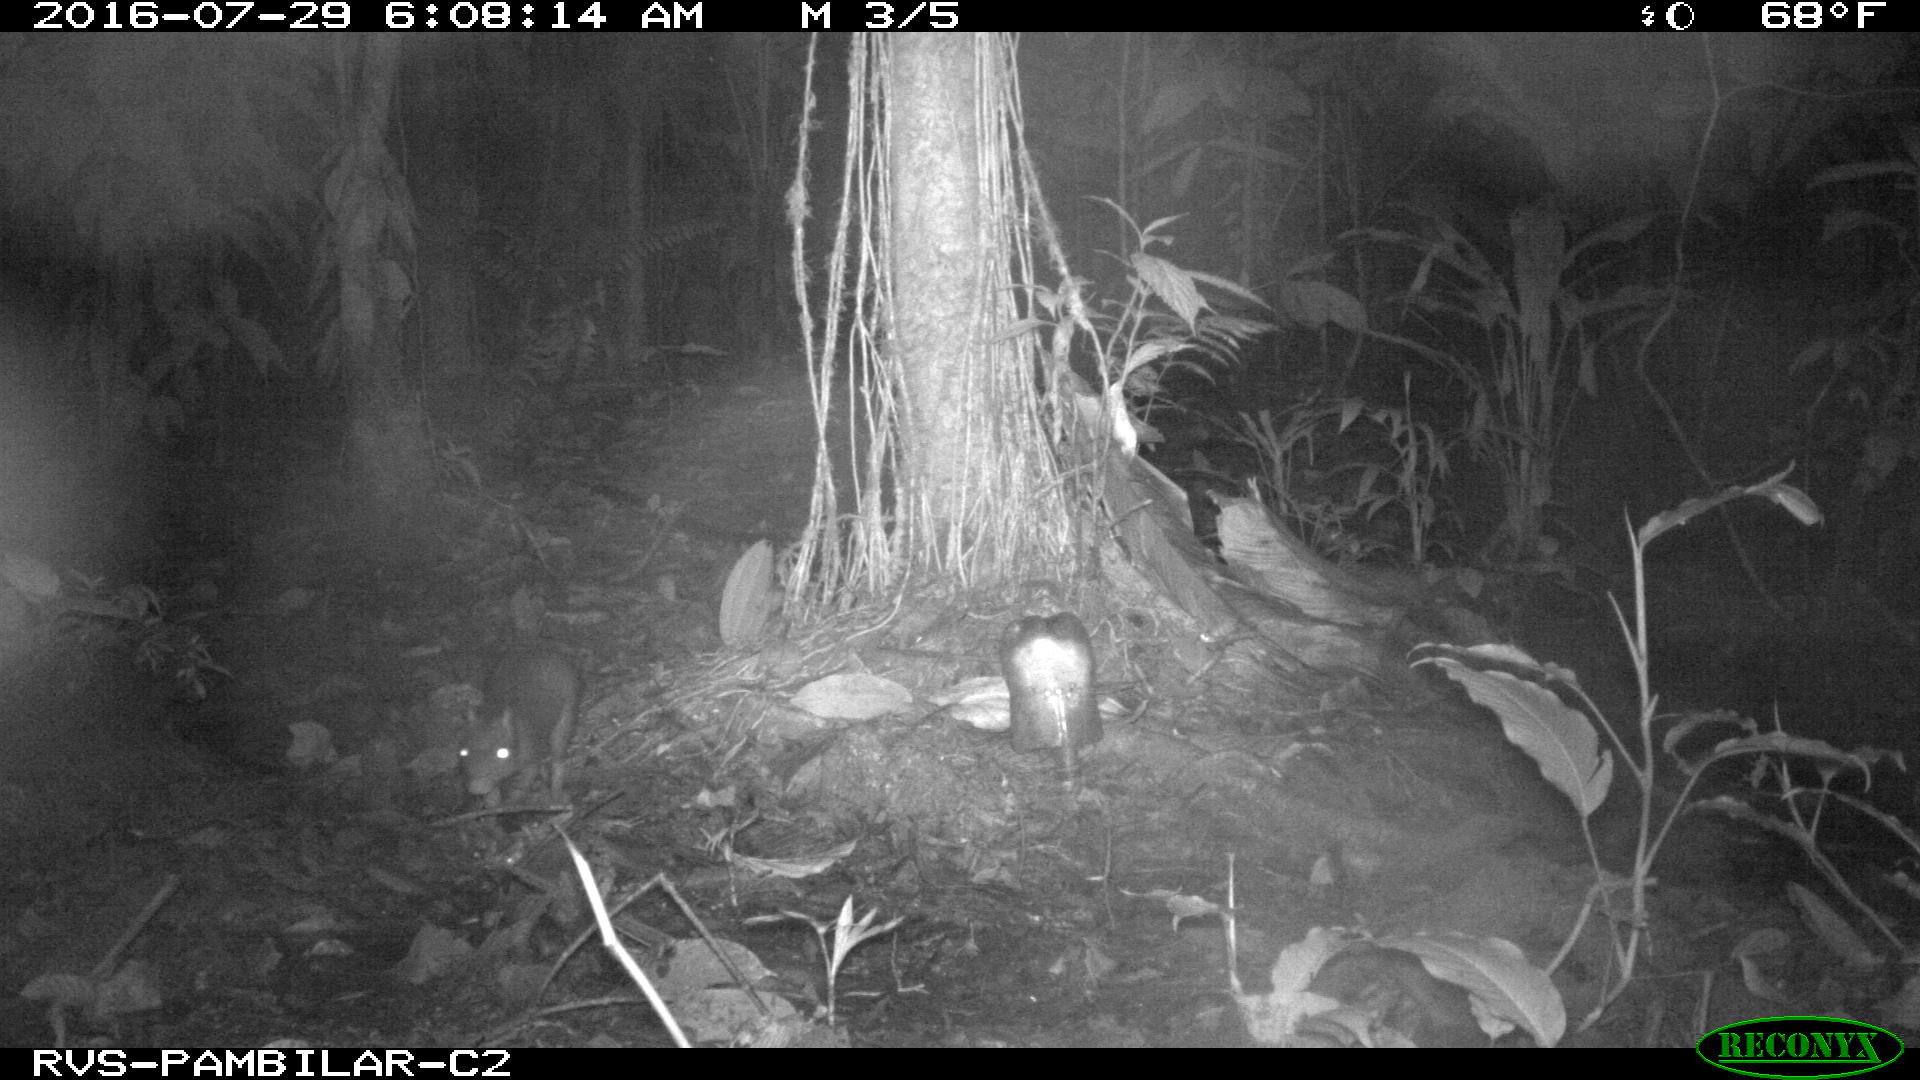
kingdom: Animalia
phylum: Chordata
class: Mammalia
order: Rodentia
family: Dasyproctidae
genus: Dasyprocta
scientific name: Dasyprocta punctata
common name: Central american agouti
